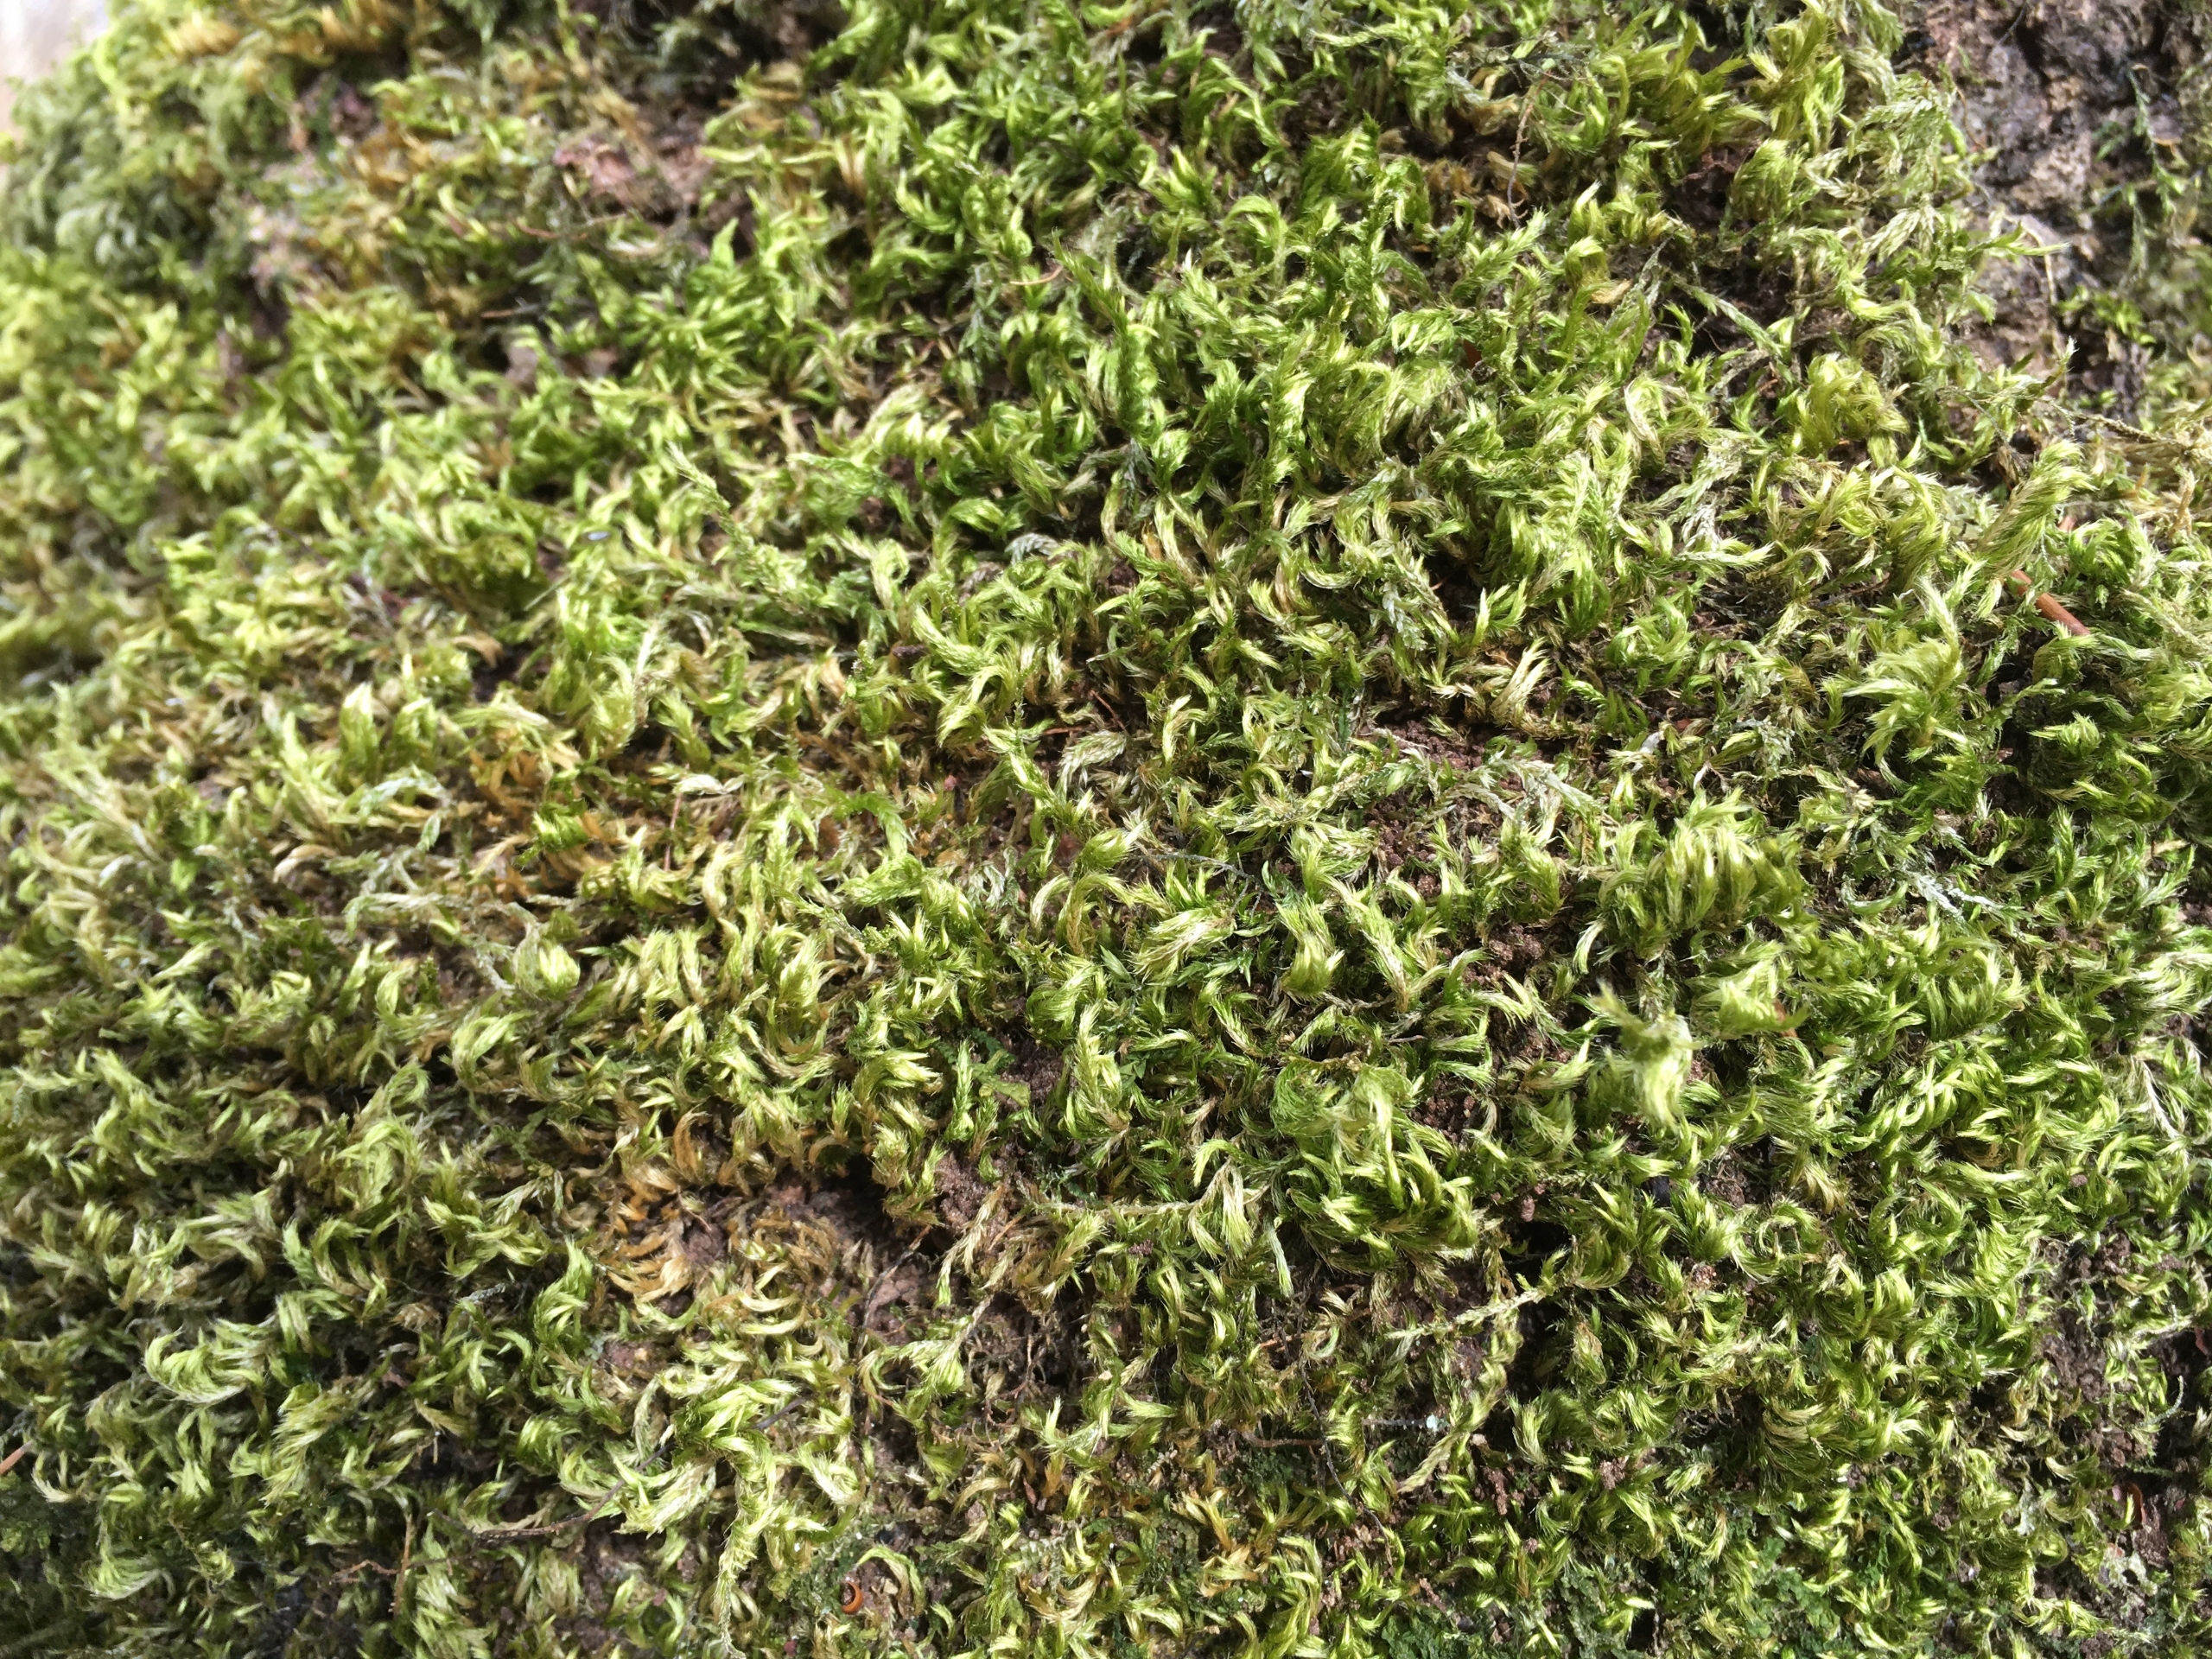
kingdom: Plantae
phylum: Bryophyta
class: Bryopsida
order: Hypnales
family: Brachytheciaceae
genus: Homalothecium
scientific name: Homalothecium sericeum
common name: Krybende silkemos
